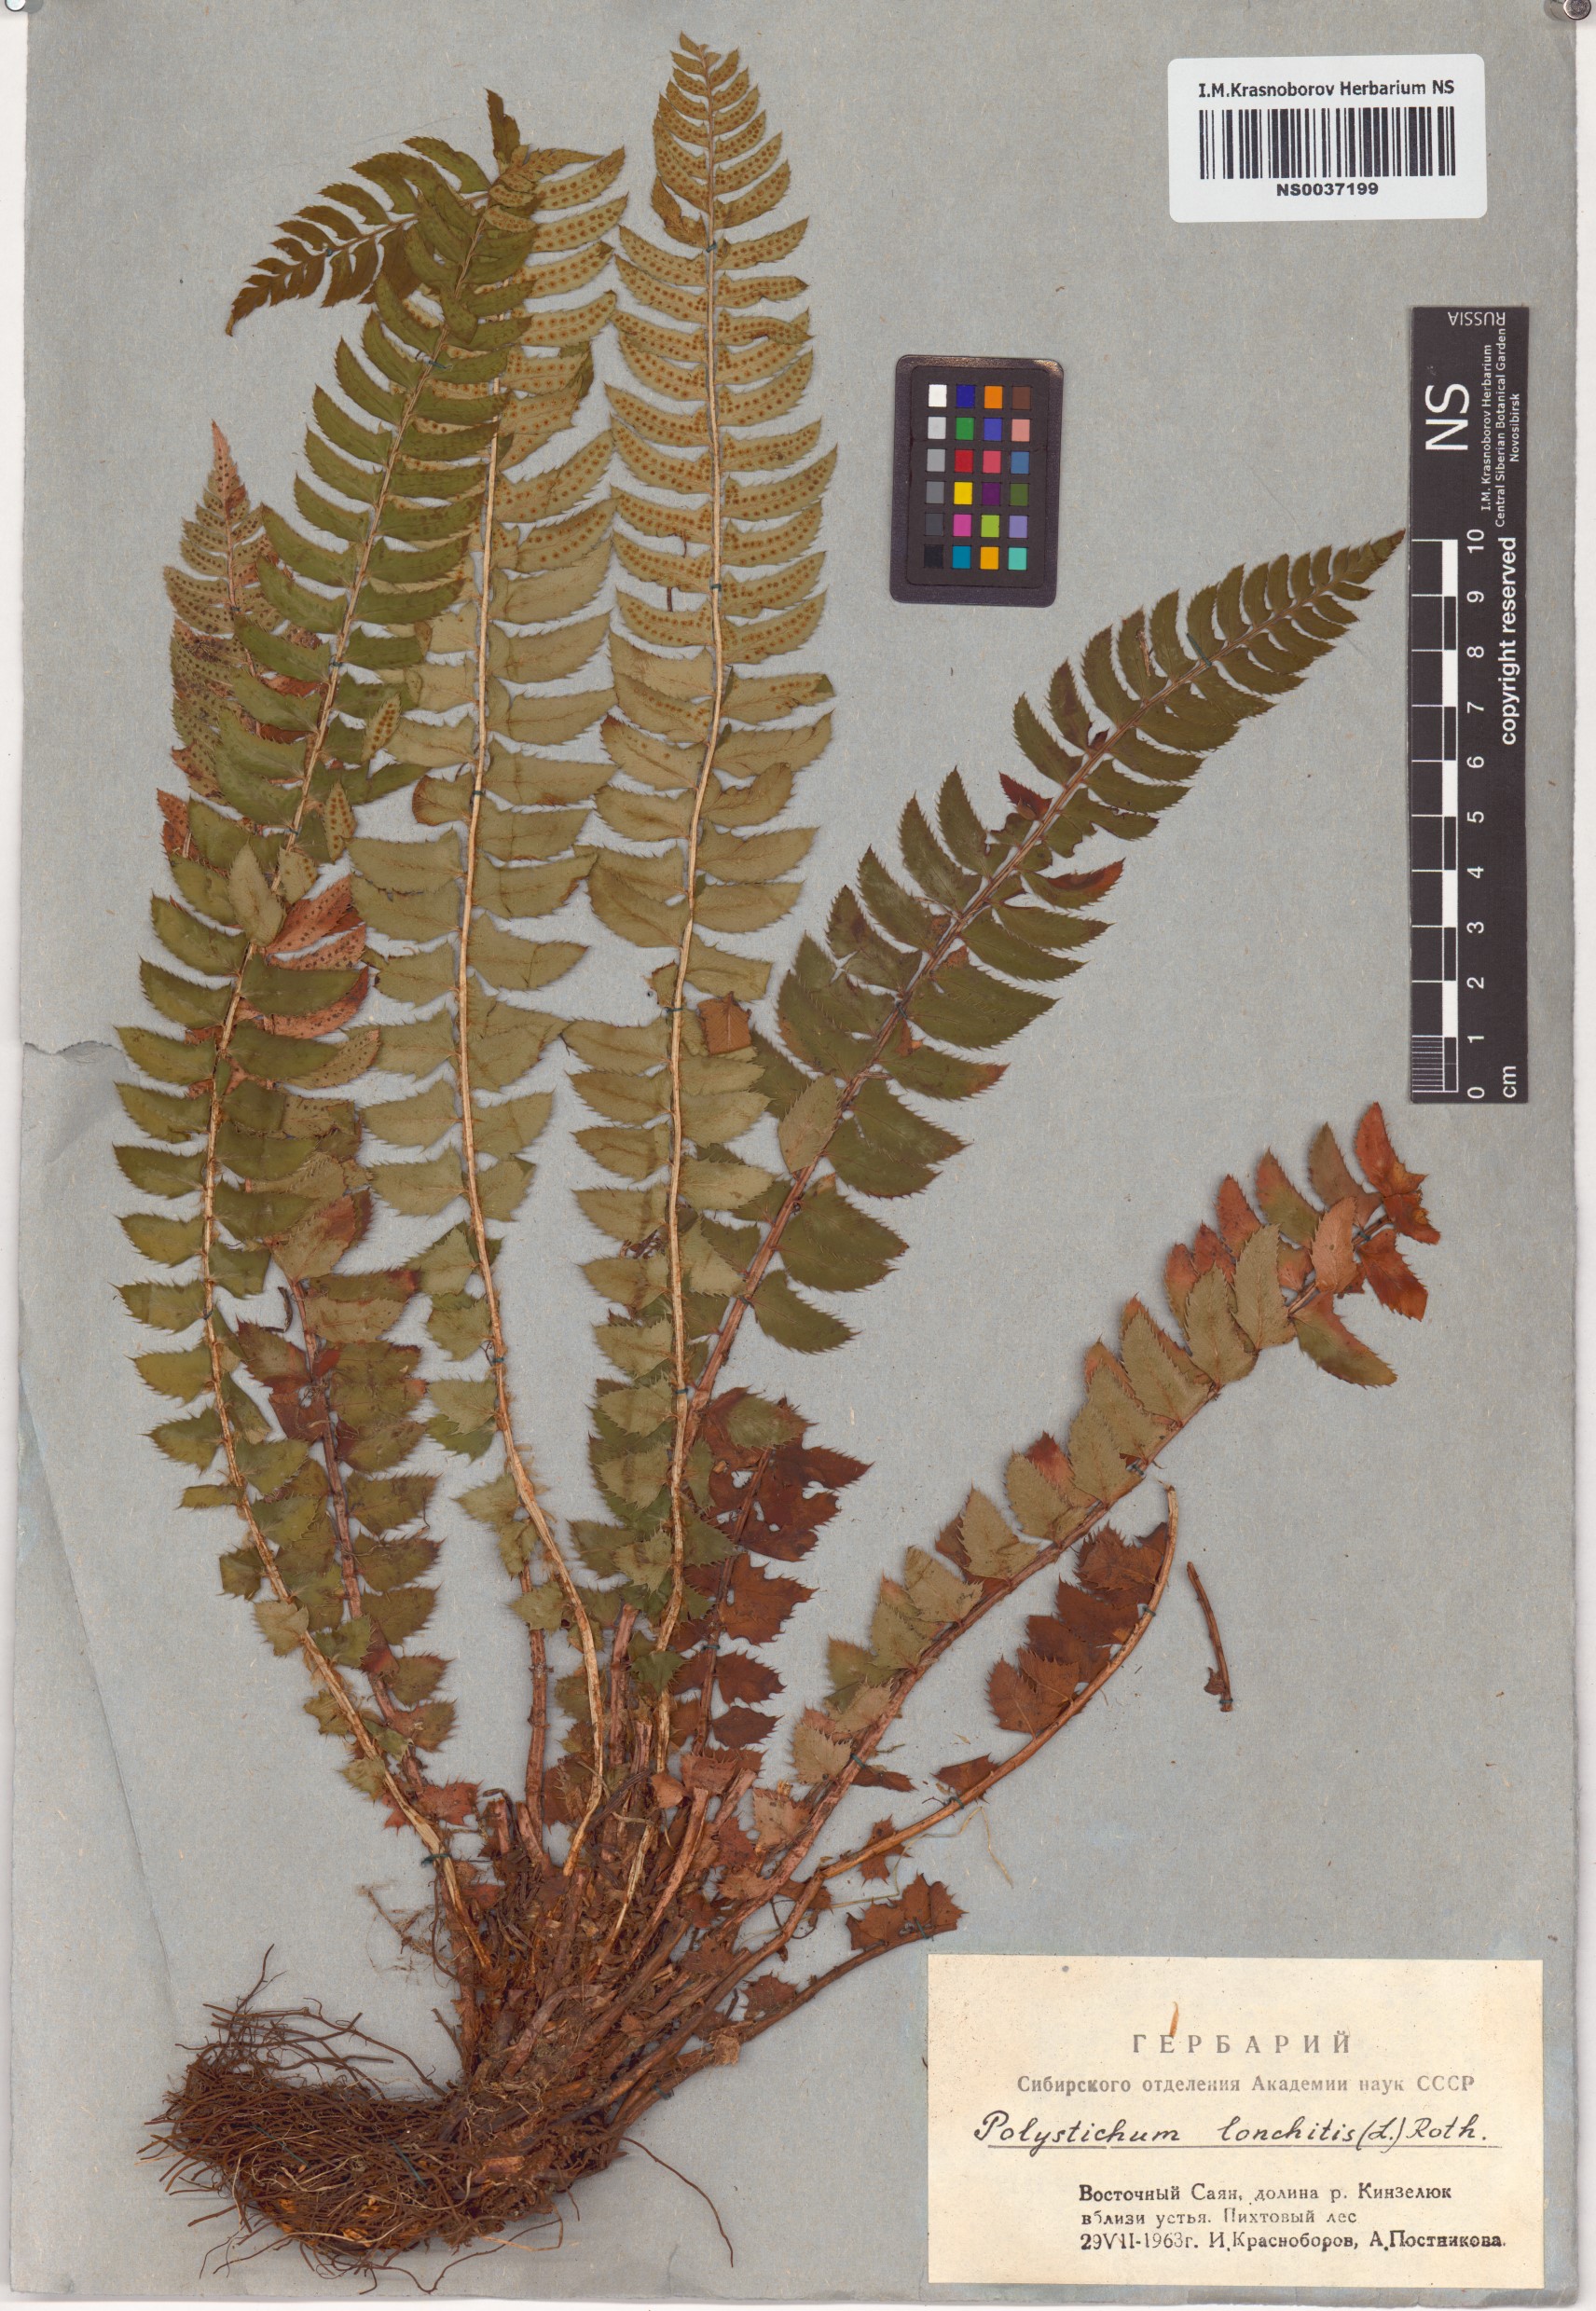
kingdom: Plantae
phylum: Tracheophyta
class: Polypodiopsida
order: Polypodiales
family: Dryopteridaceae
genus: Polystichum
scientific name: Polystichum lonchitis
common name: Holly fern
